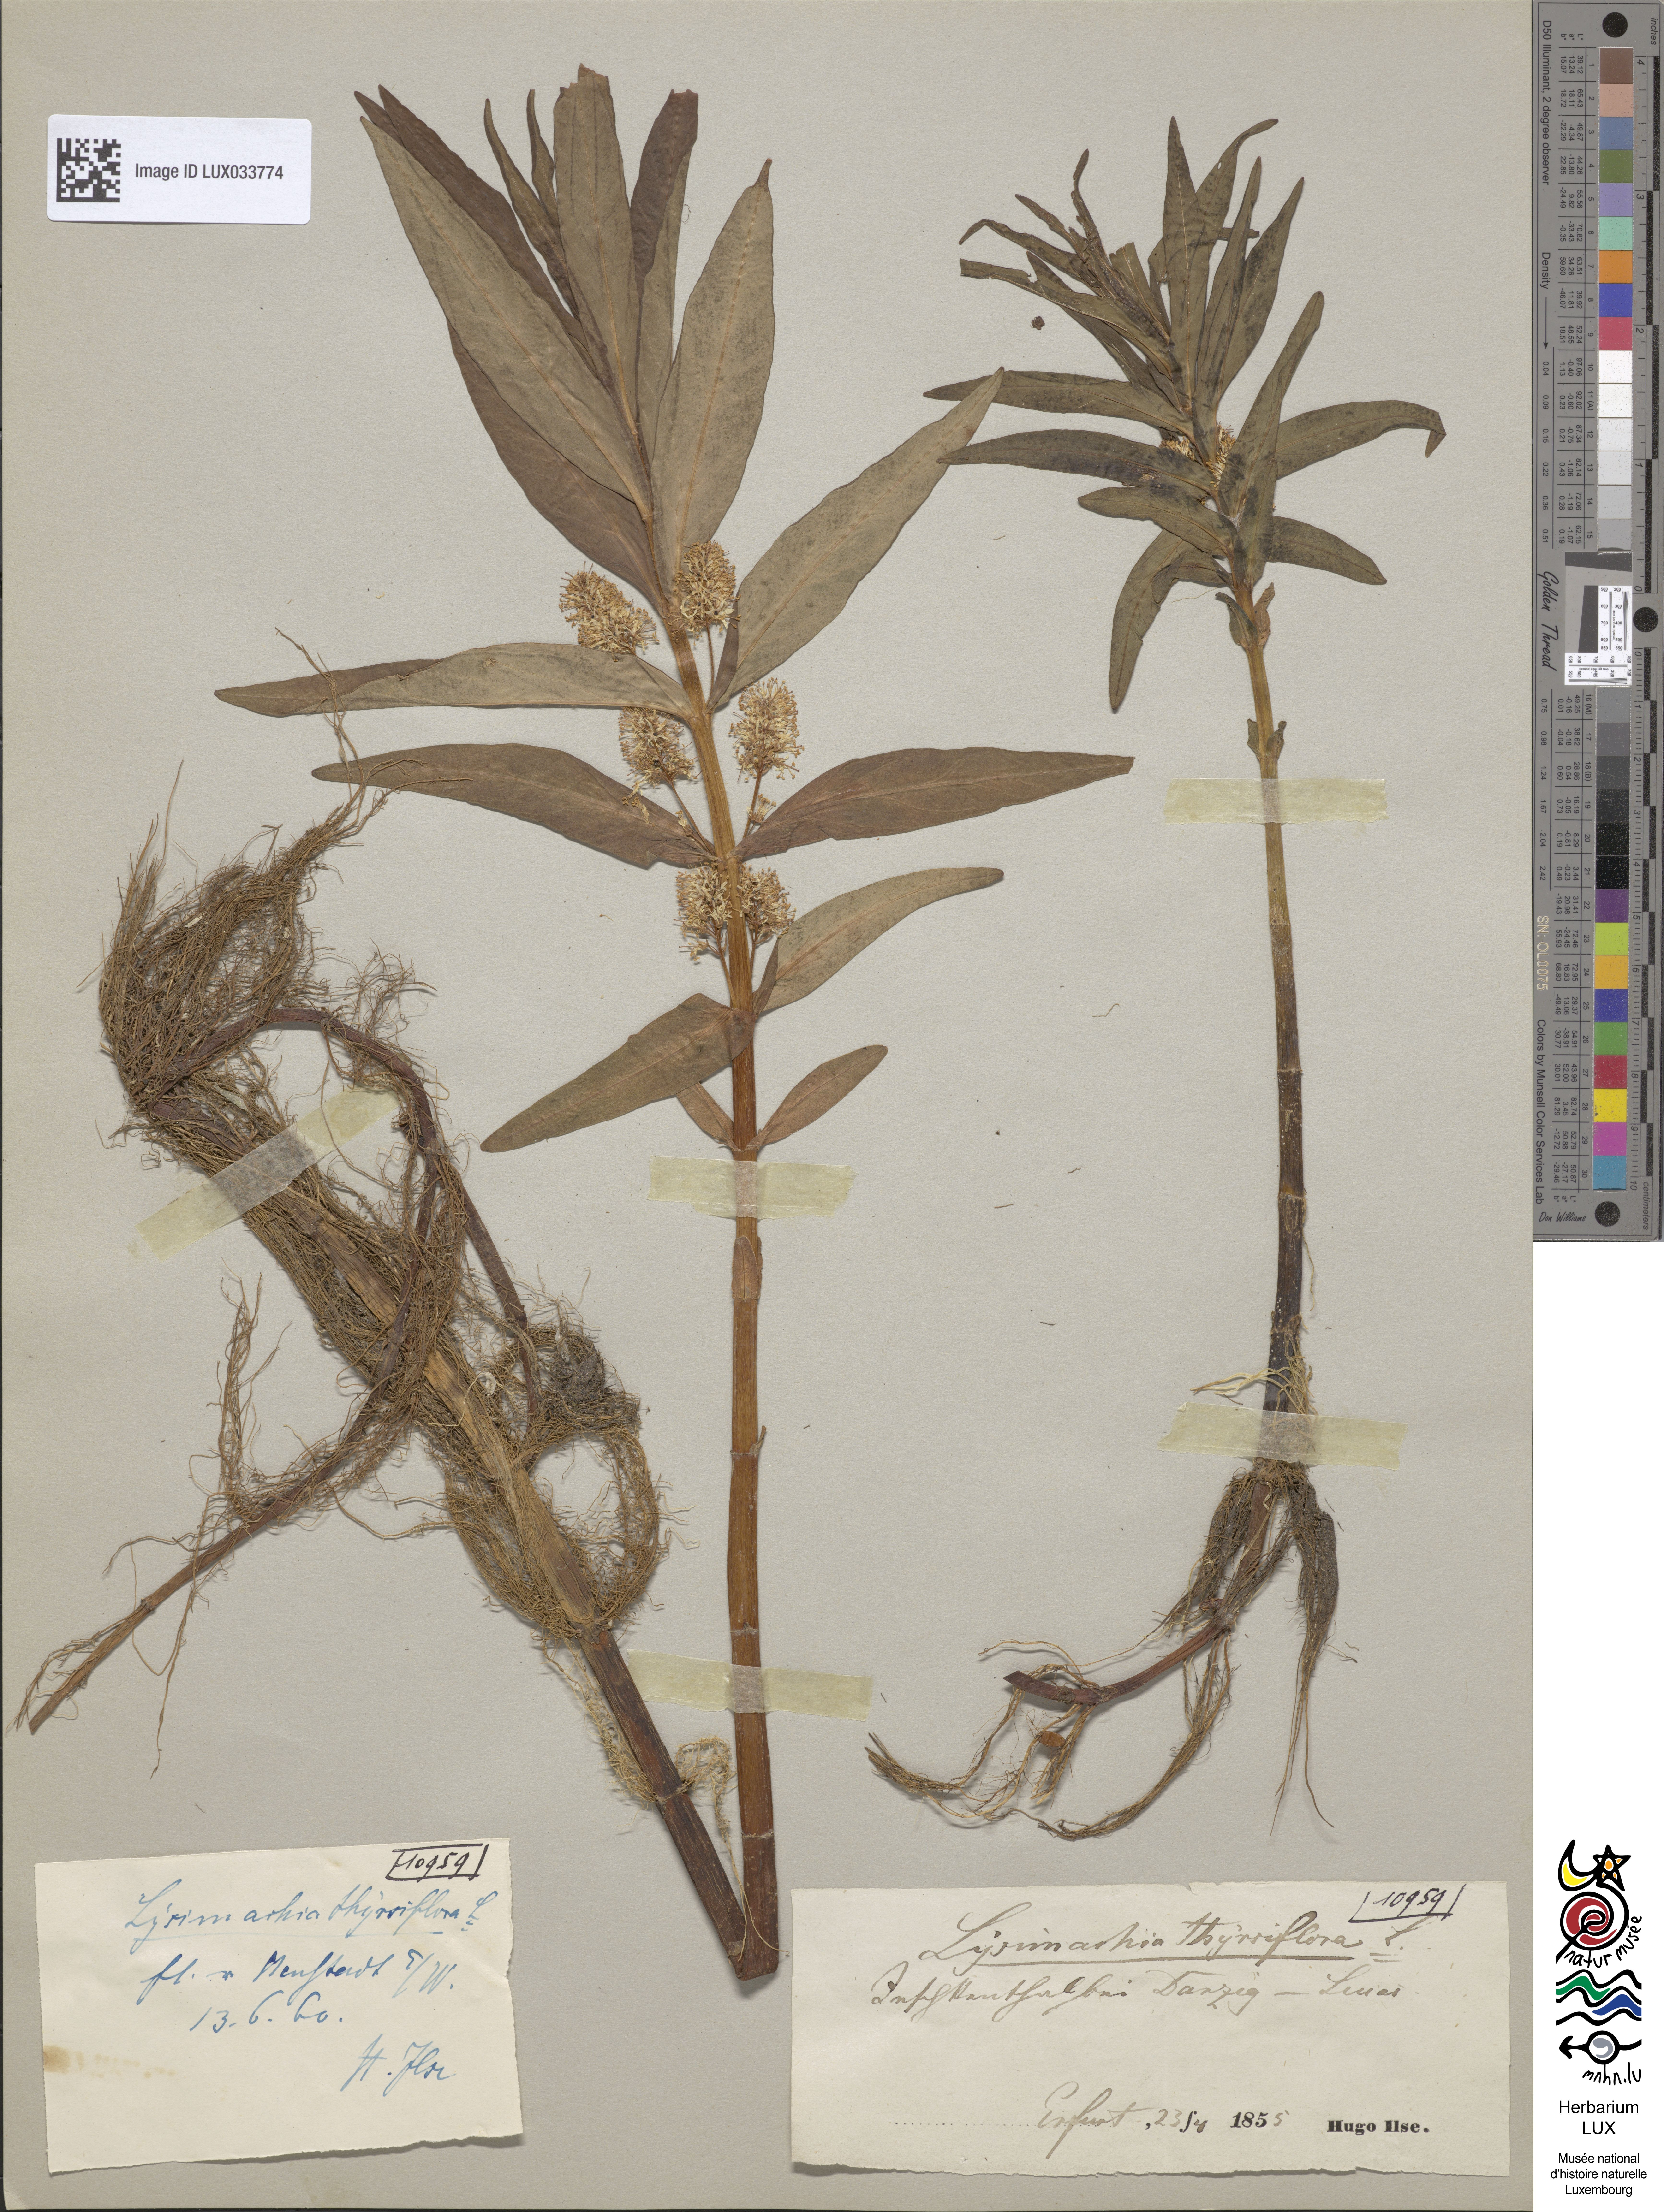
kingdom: Plantae
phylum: Tracheophyta
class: Magnoliopsida
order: Ericales
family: Primulaceae
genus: Lysimachia
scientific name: Lysimachia thyrsiflora
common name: Tufted loosestrife
